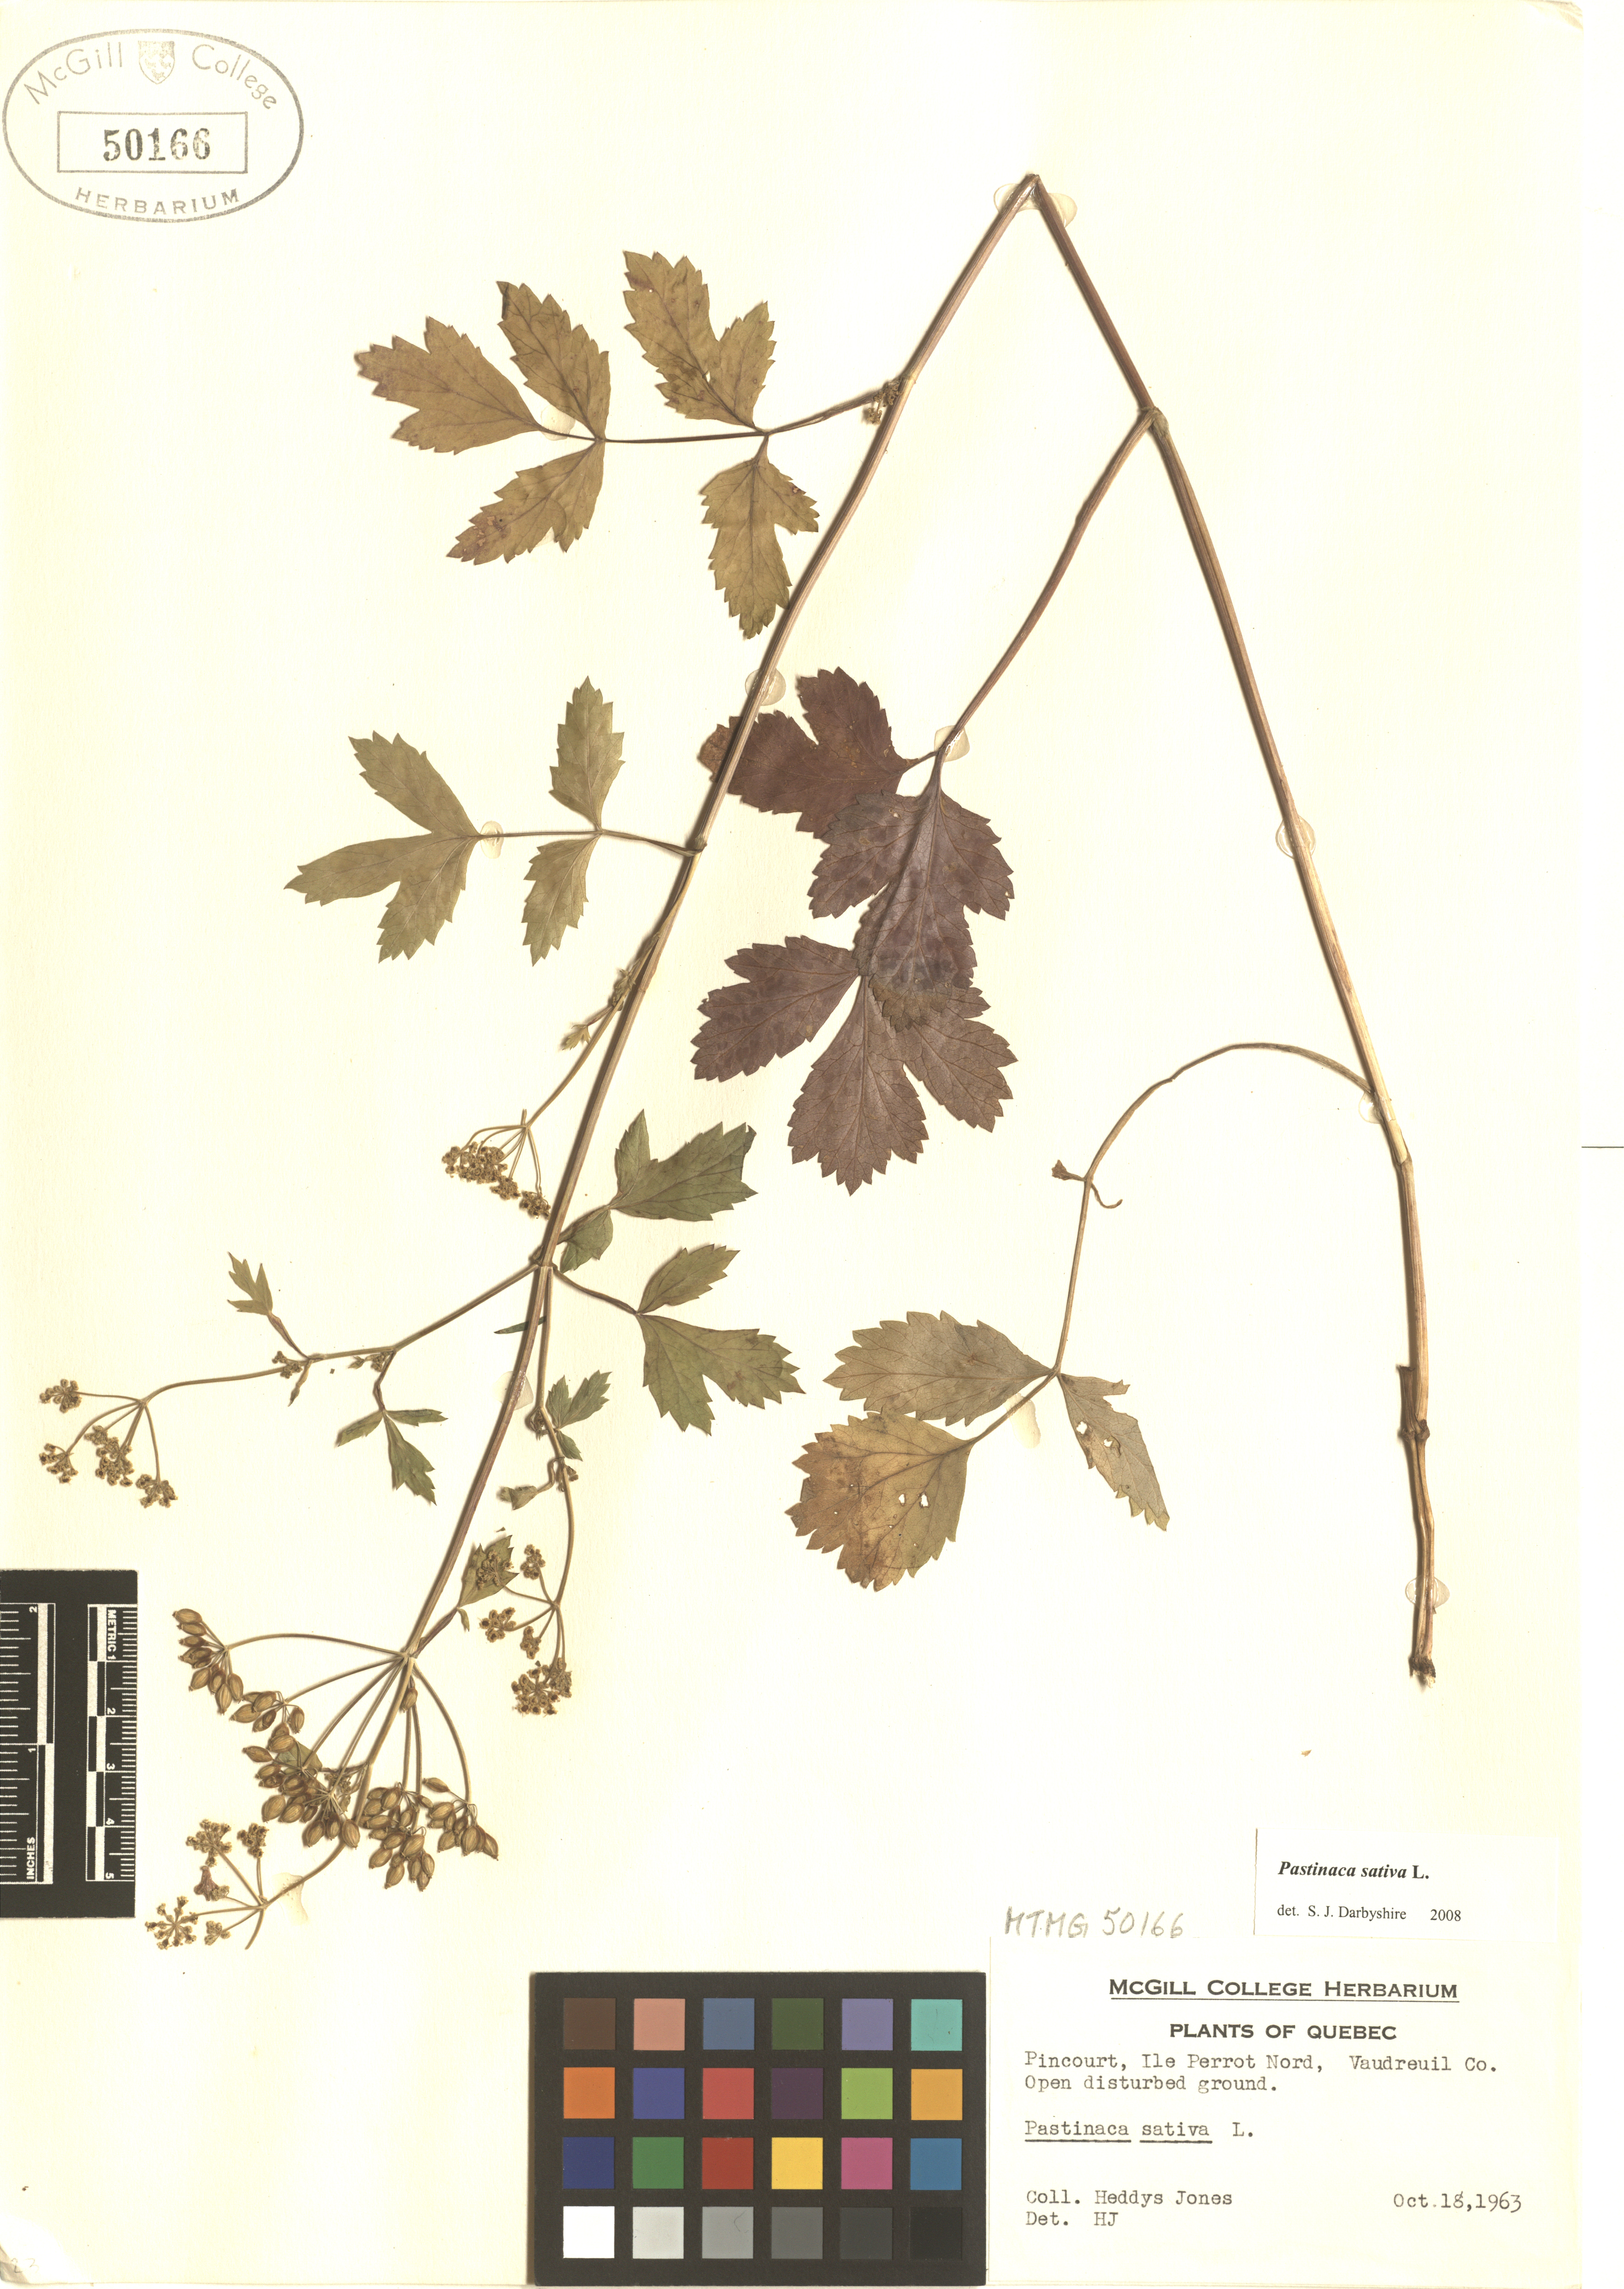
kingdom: Plantae
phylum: Tracheophyta
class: Magnoliopsida
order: Apiales
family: Apiaceae
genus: Pastinaca
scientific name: Pastinaca sativa
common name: Wild parsnip
